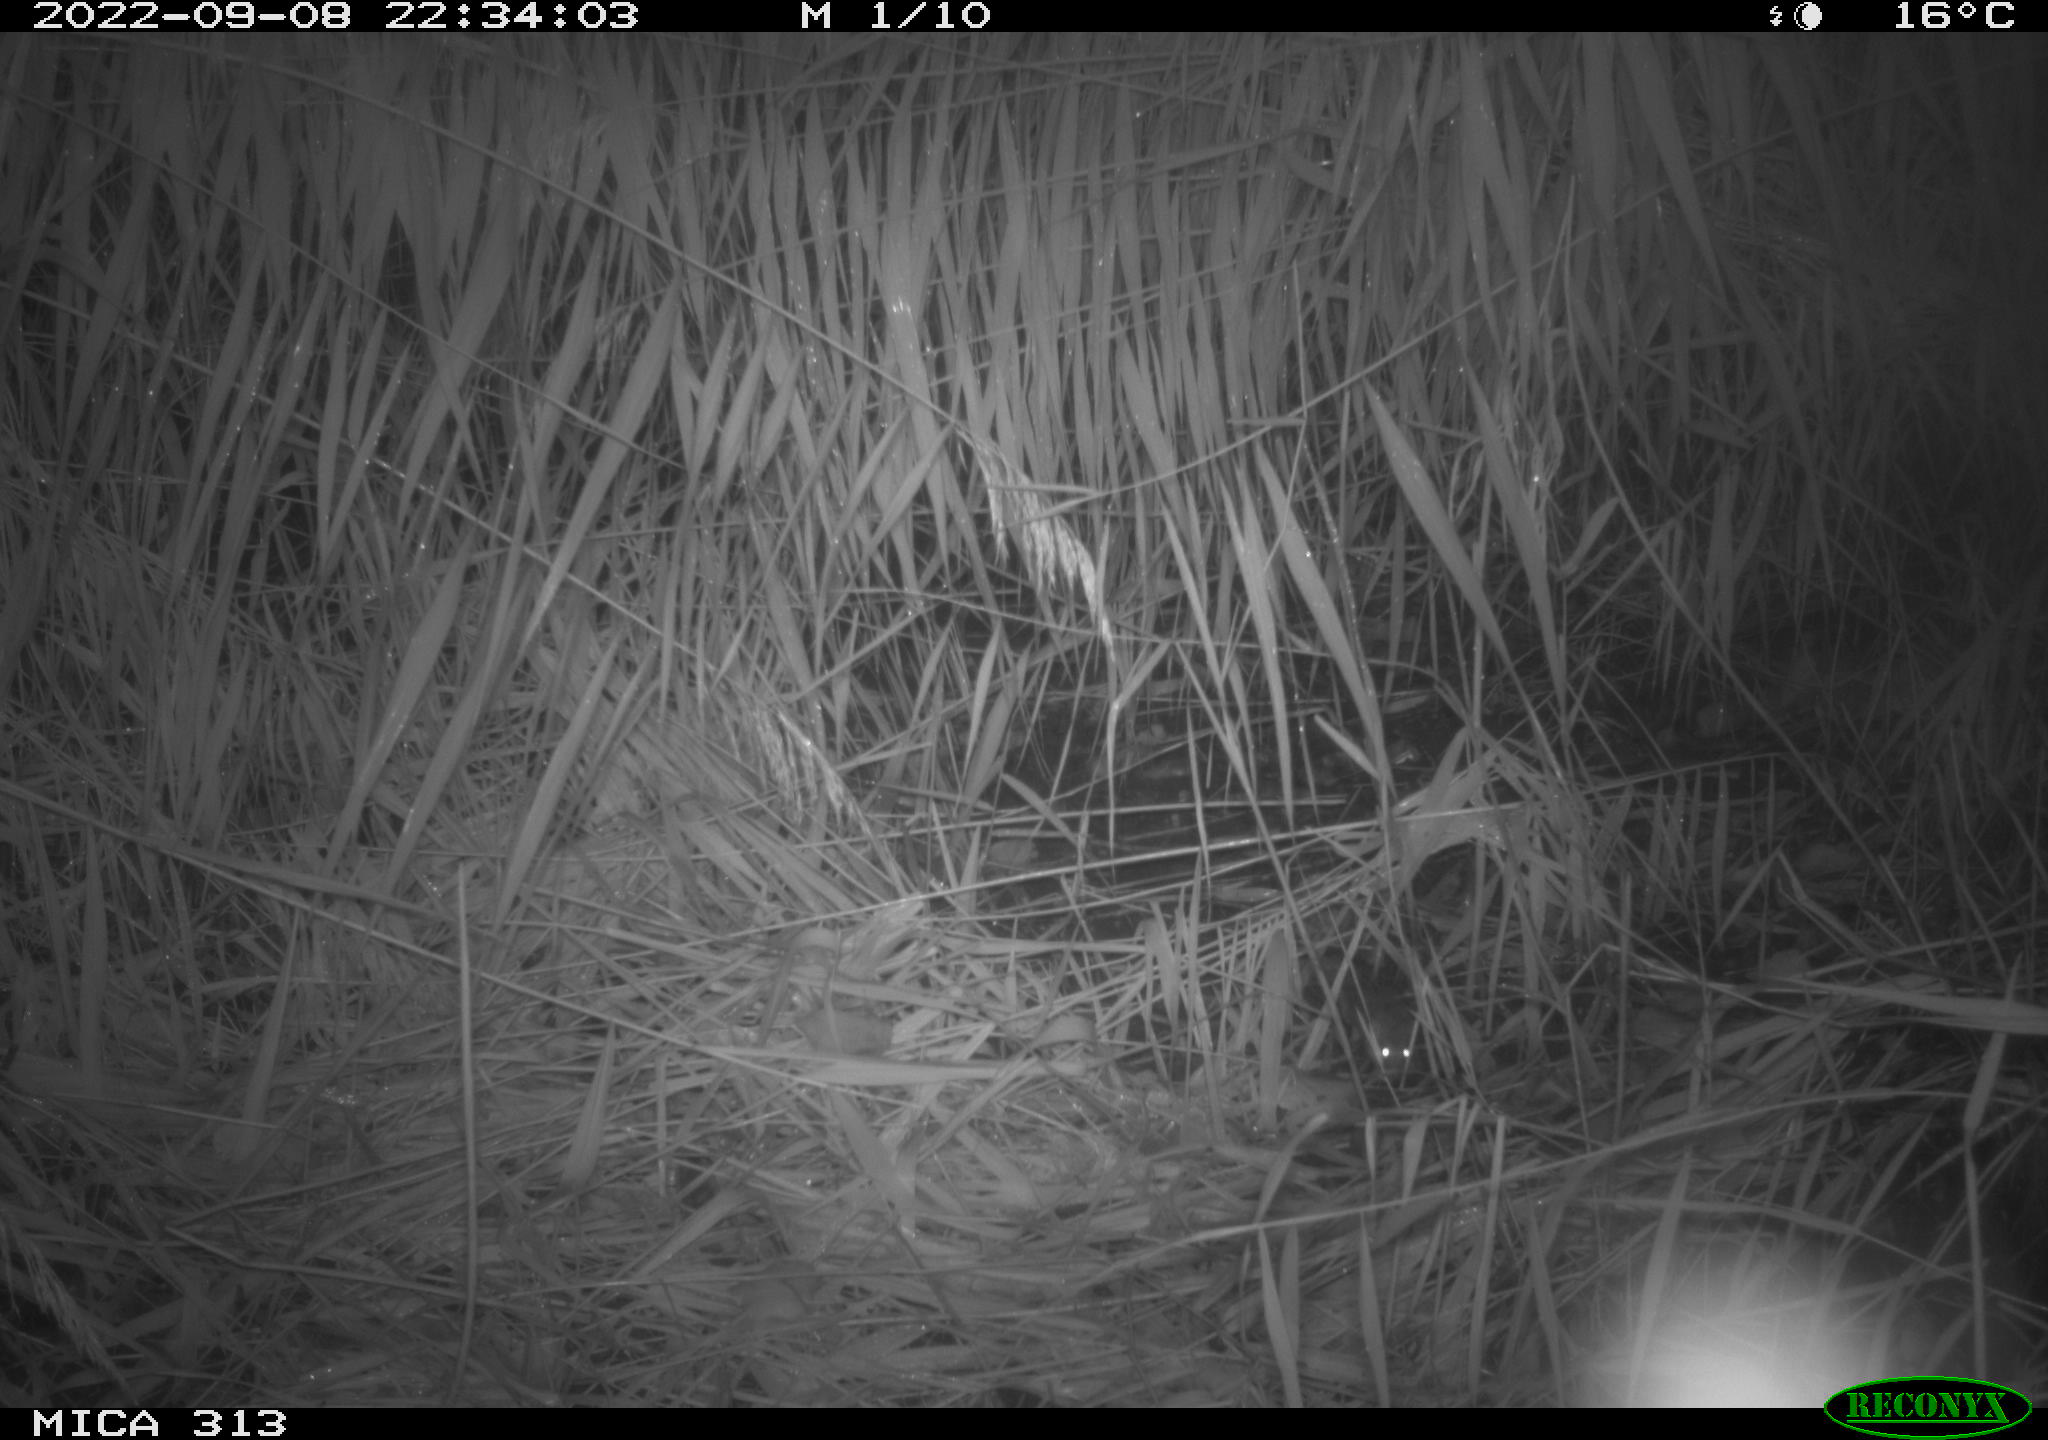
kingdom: Animalia
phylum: Chordata
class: Mammalia
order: Rodentia
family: Muridae
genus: Rattus
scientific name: Rattus norvegicus
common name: Brown rat
